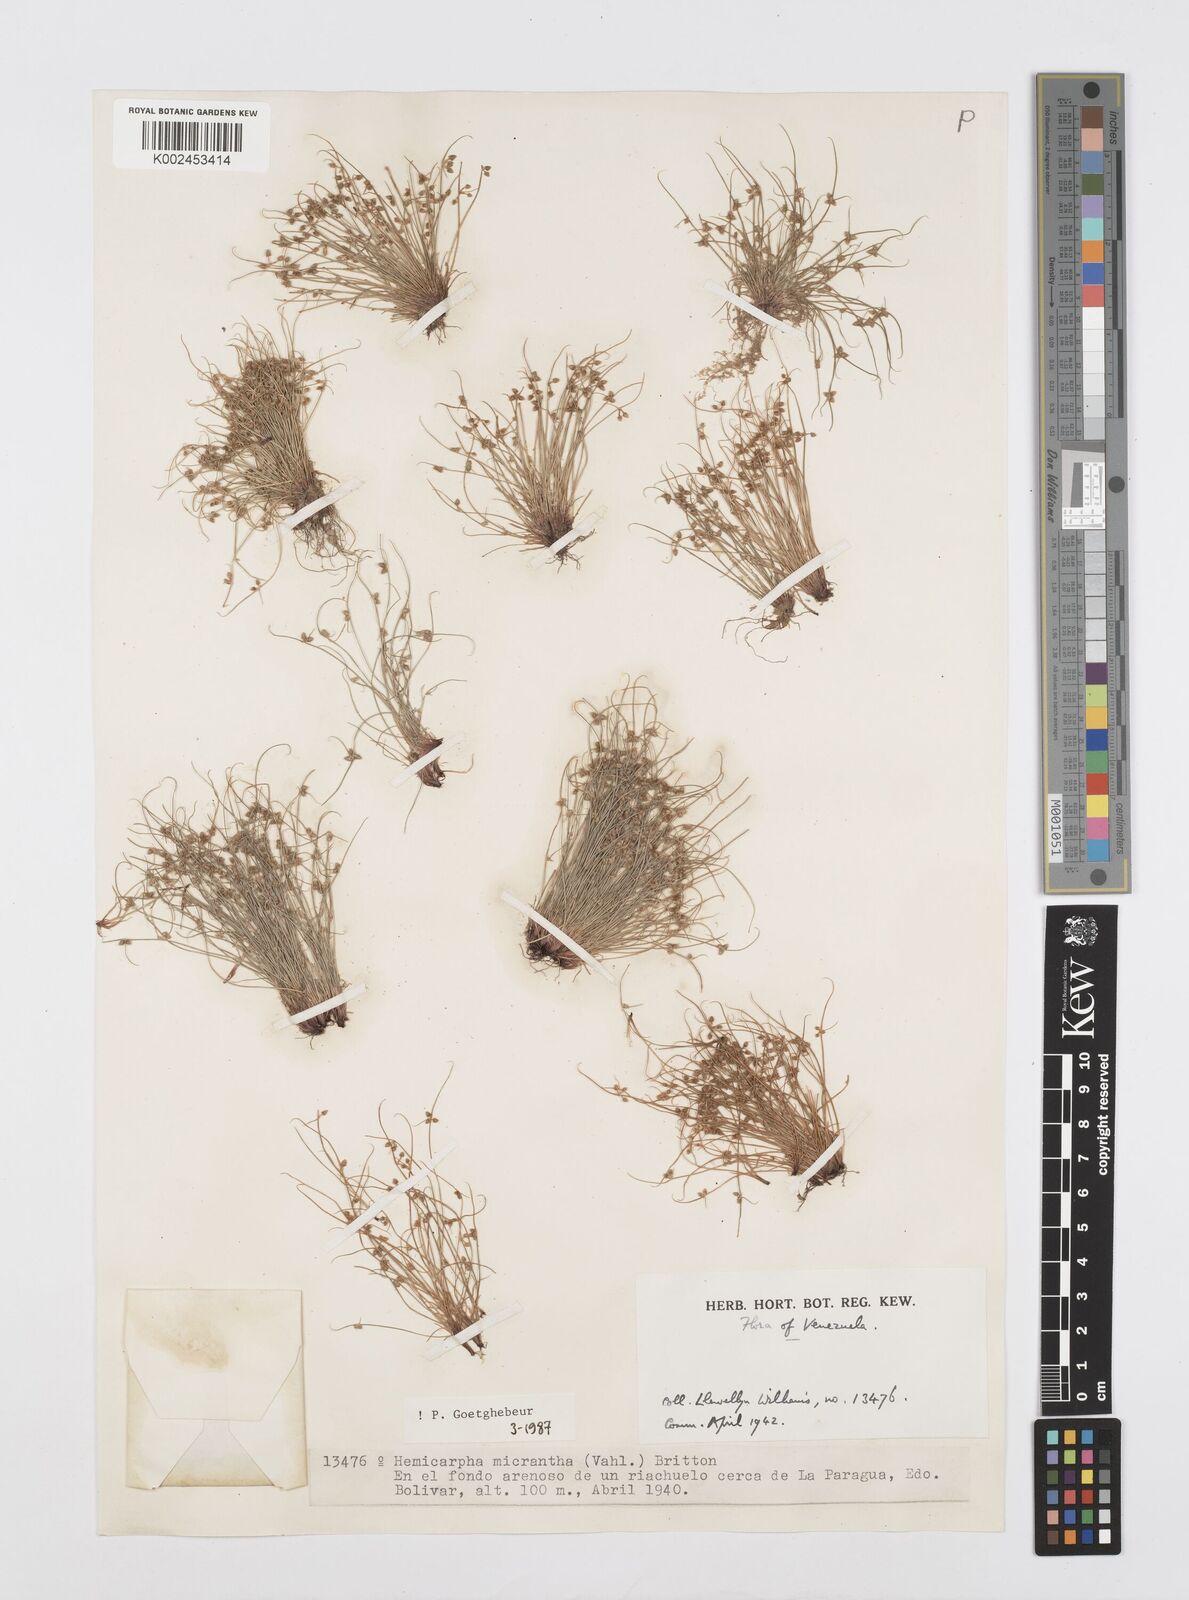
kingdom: Plantae
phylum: Tracheophyta
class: Liliopsida
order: Poales
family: Cyperaceae
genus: Cyperus
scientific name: Cyperus dentatus
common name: Dentate umbrella sedge
